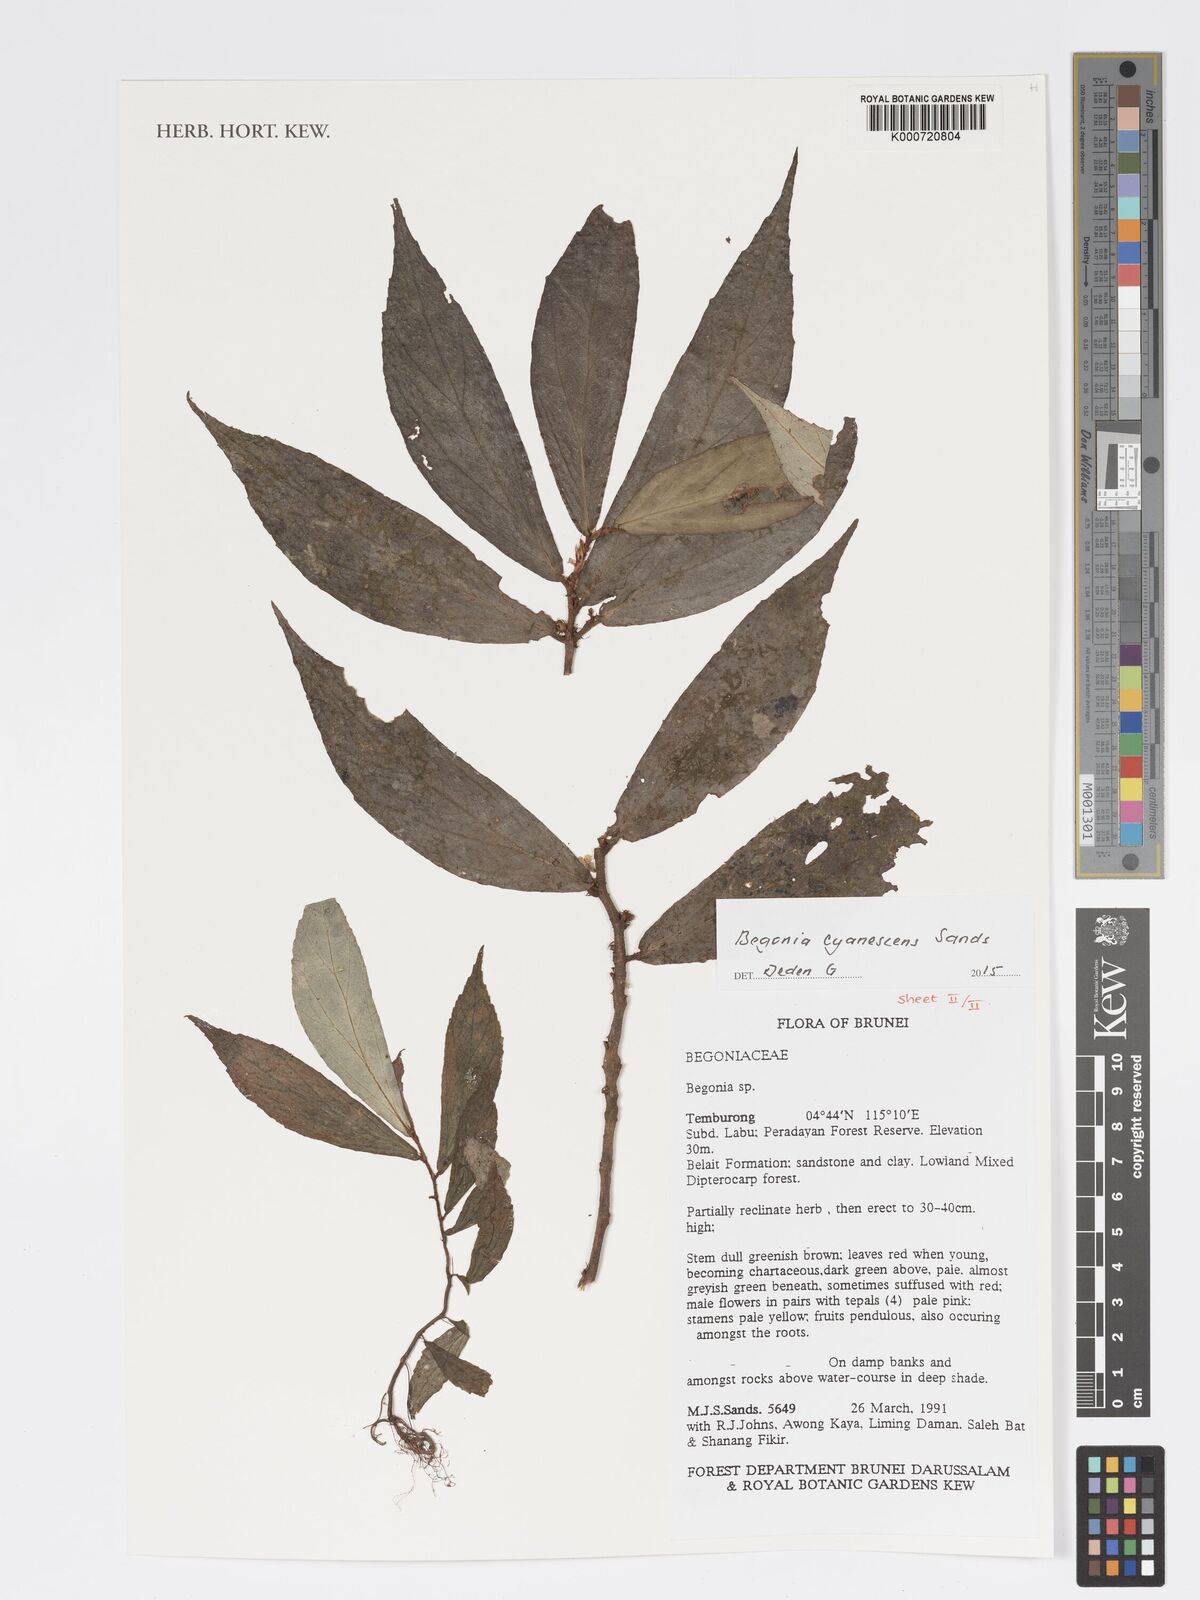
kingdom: Plantae
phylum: Tracheophyta
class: Magnoliopsida
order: Cucurbitales
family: Begoniaceae
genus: Begonia
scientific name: Begonia cyanescens
